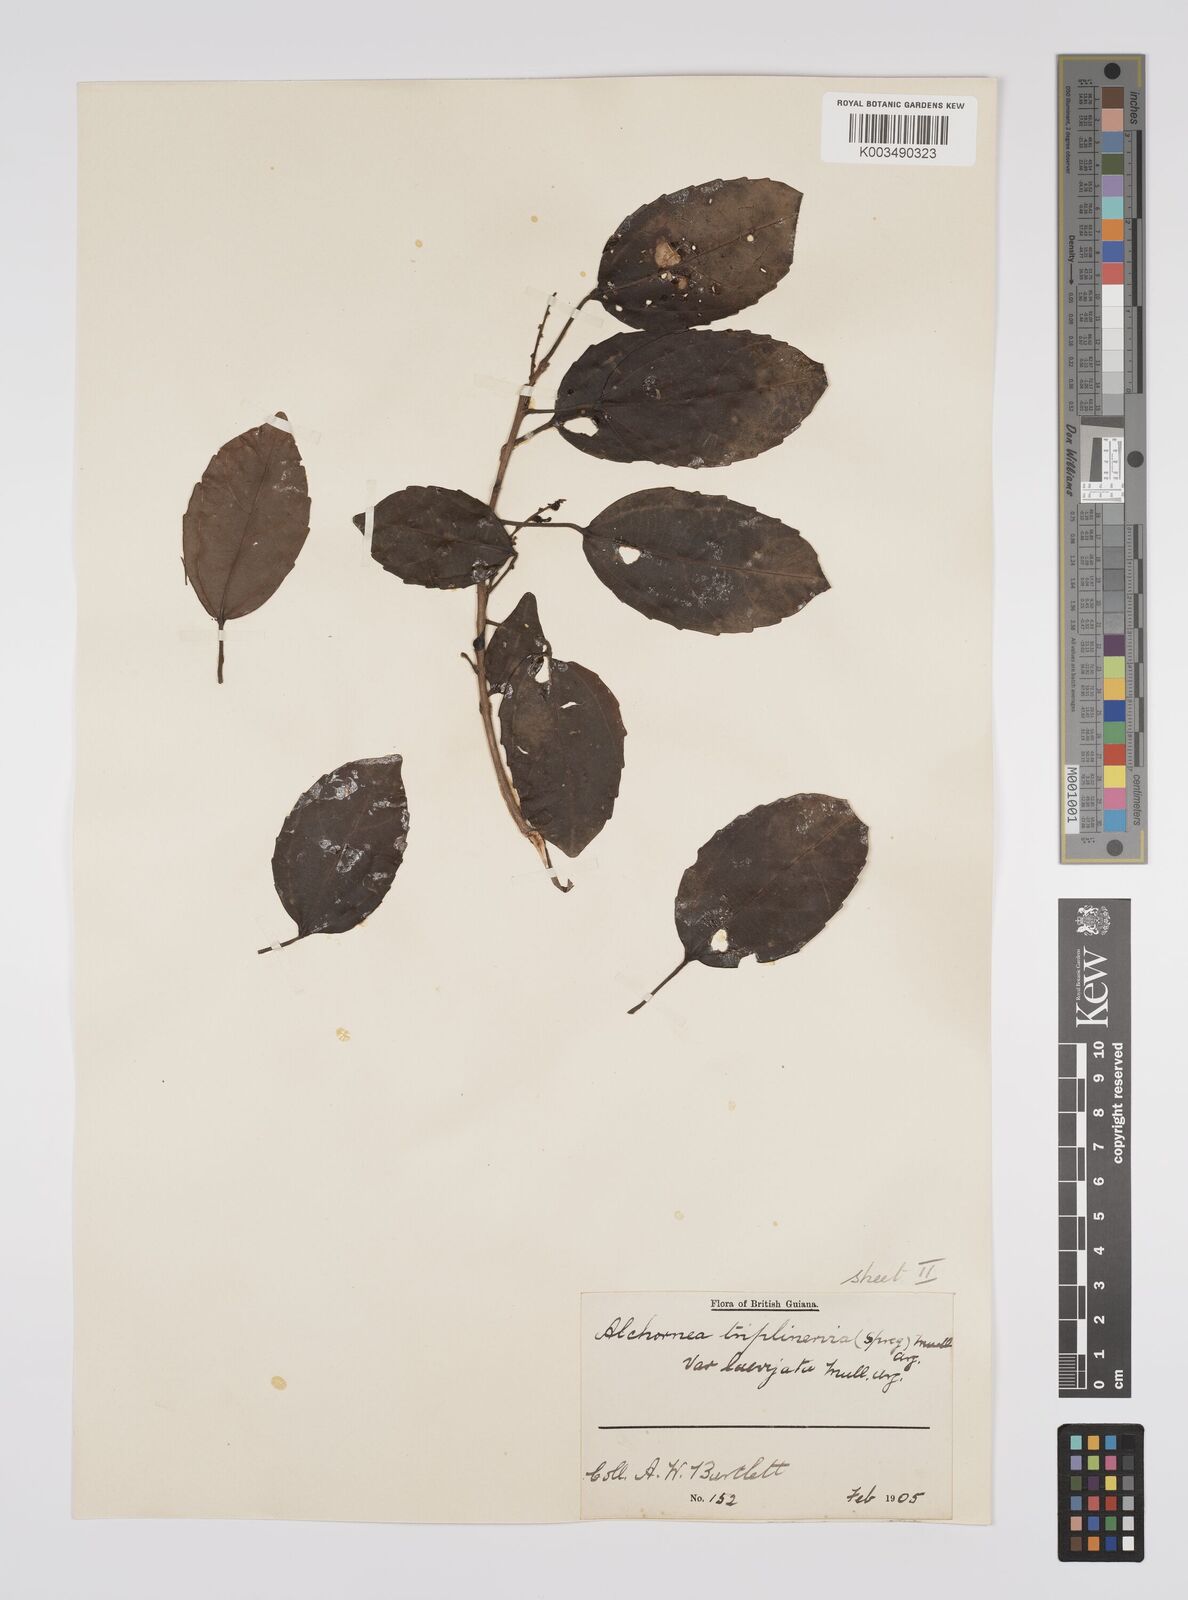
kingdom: Plantae
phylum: Tracheophyta
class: Magnoliopsida
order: Malpighiales
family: Euphorbiaceae
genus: Alchornea
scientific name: Alchornea triplinervia
